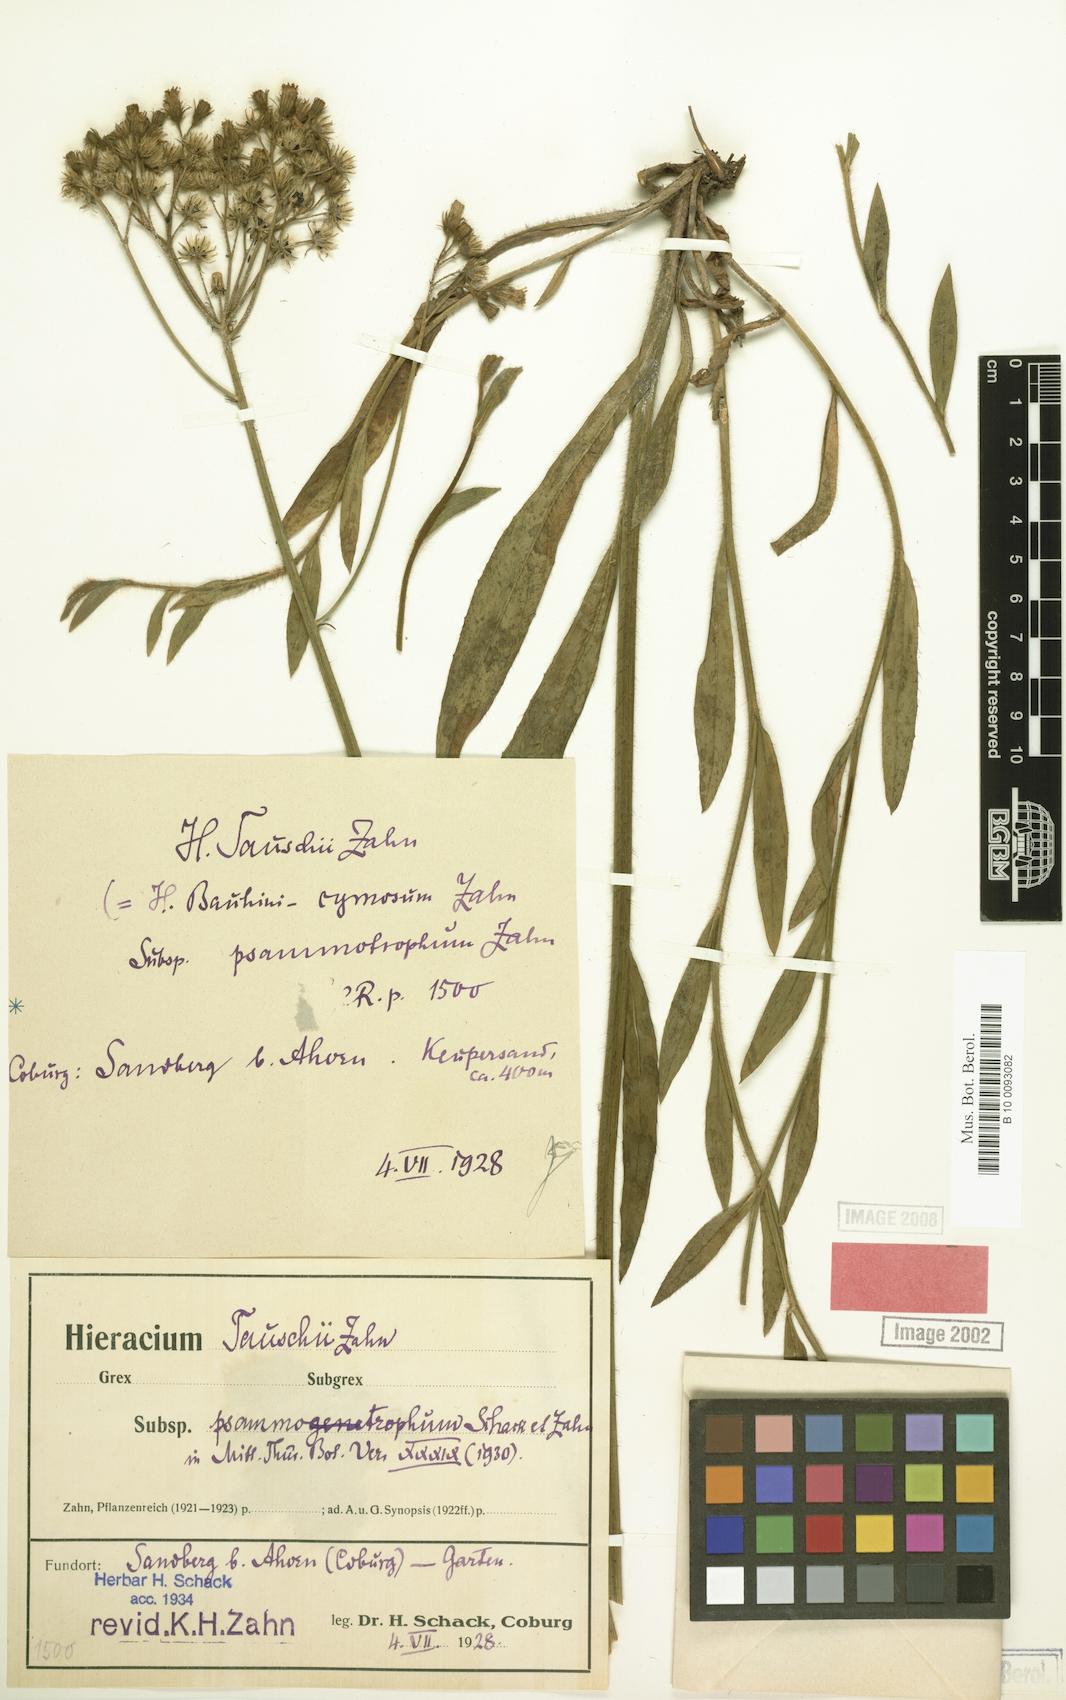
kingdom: Plantae
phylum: Tracheophyta
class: Magnoliopsida
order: Asterales
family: Asteraceae
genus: Pilosella
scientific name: Pilosella densiflora
